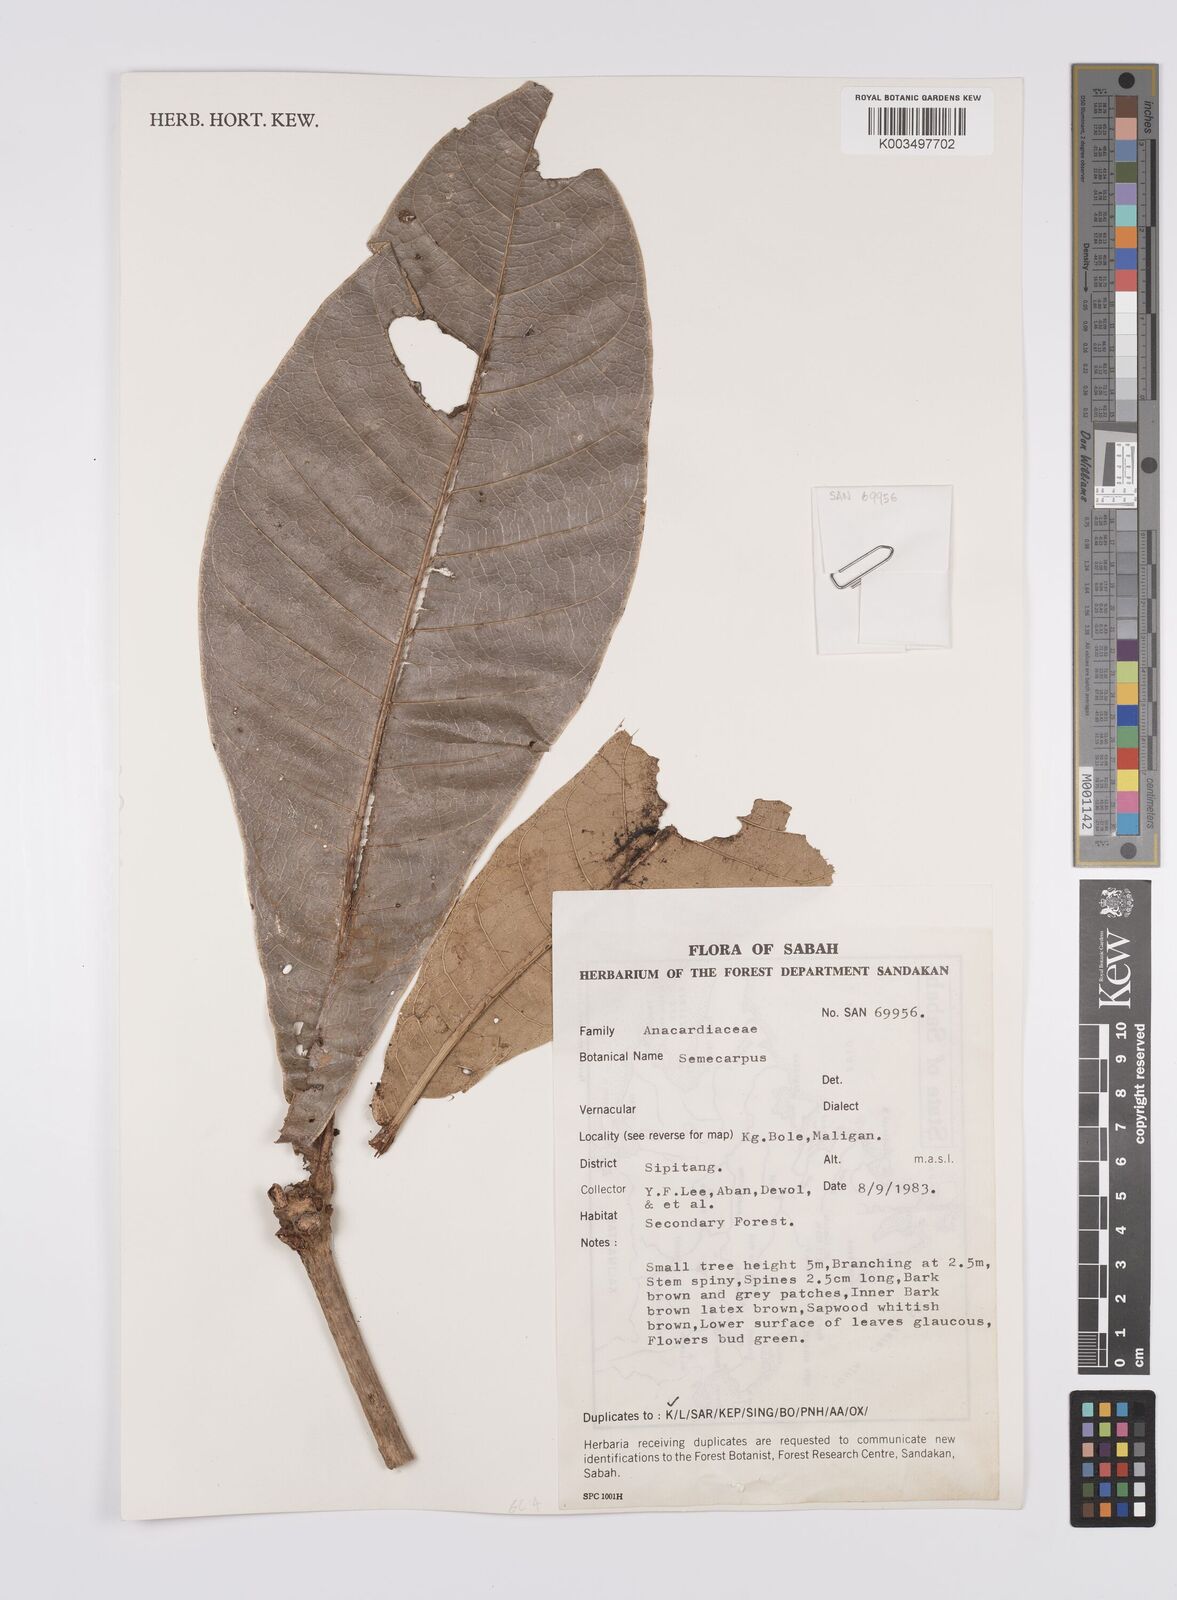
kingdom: Plantae
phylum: Tracheophyta
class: Magnoliopsida
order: Sapindales
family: Anacardiaceae
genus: Semecarpus
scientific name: Semecarpus
